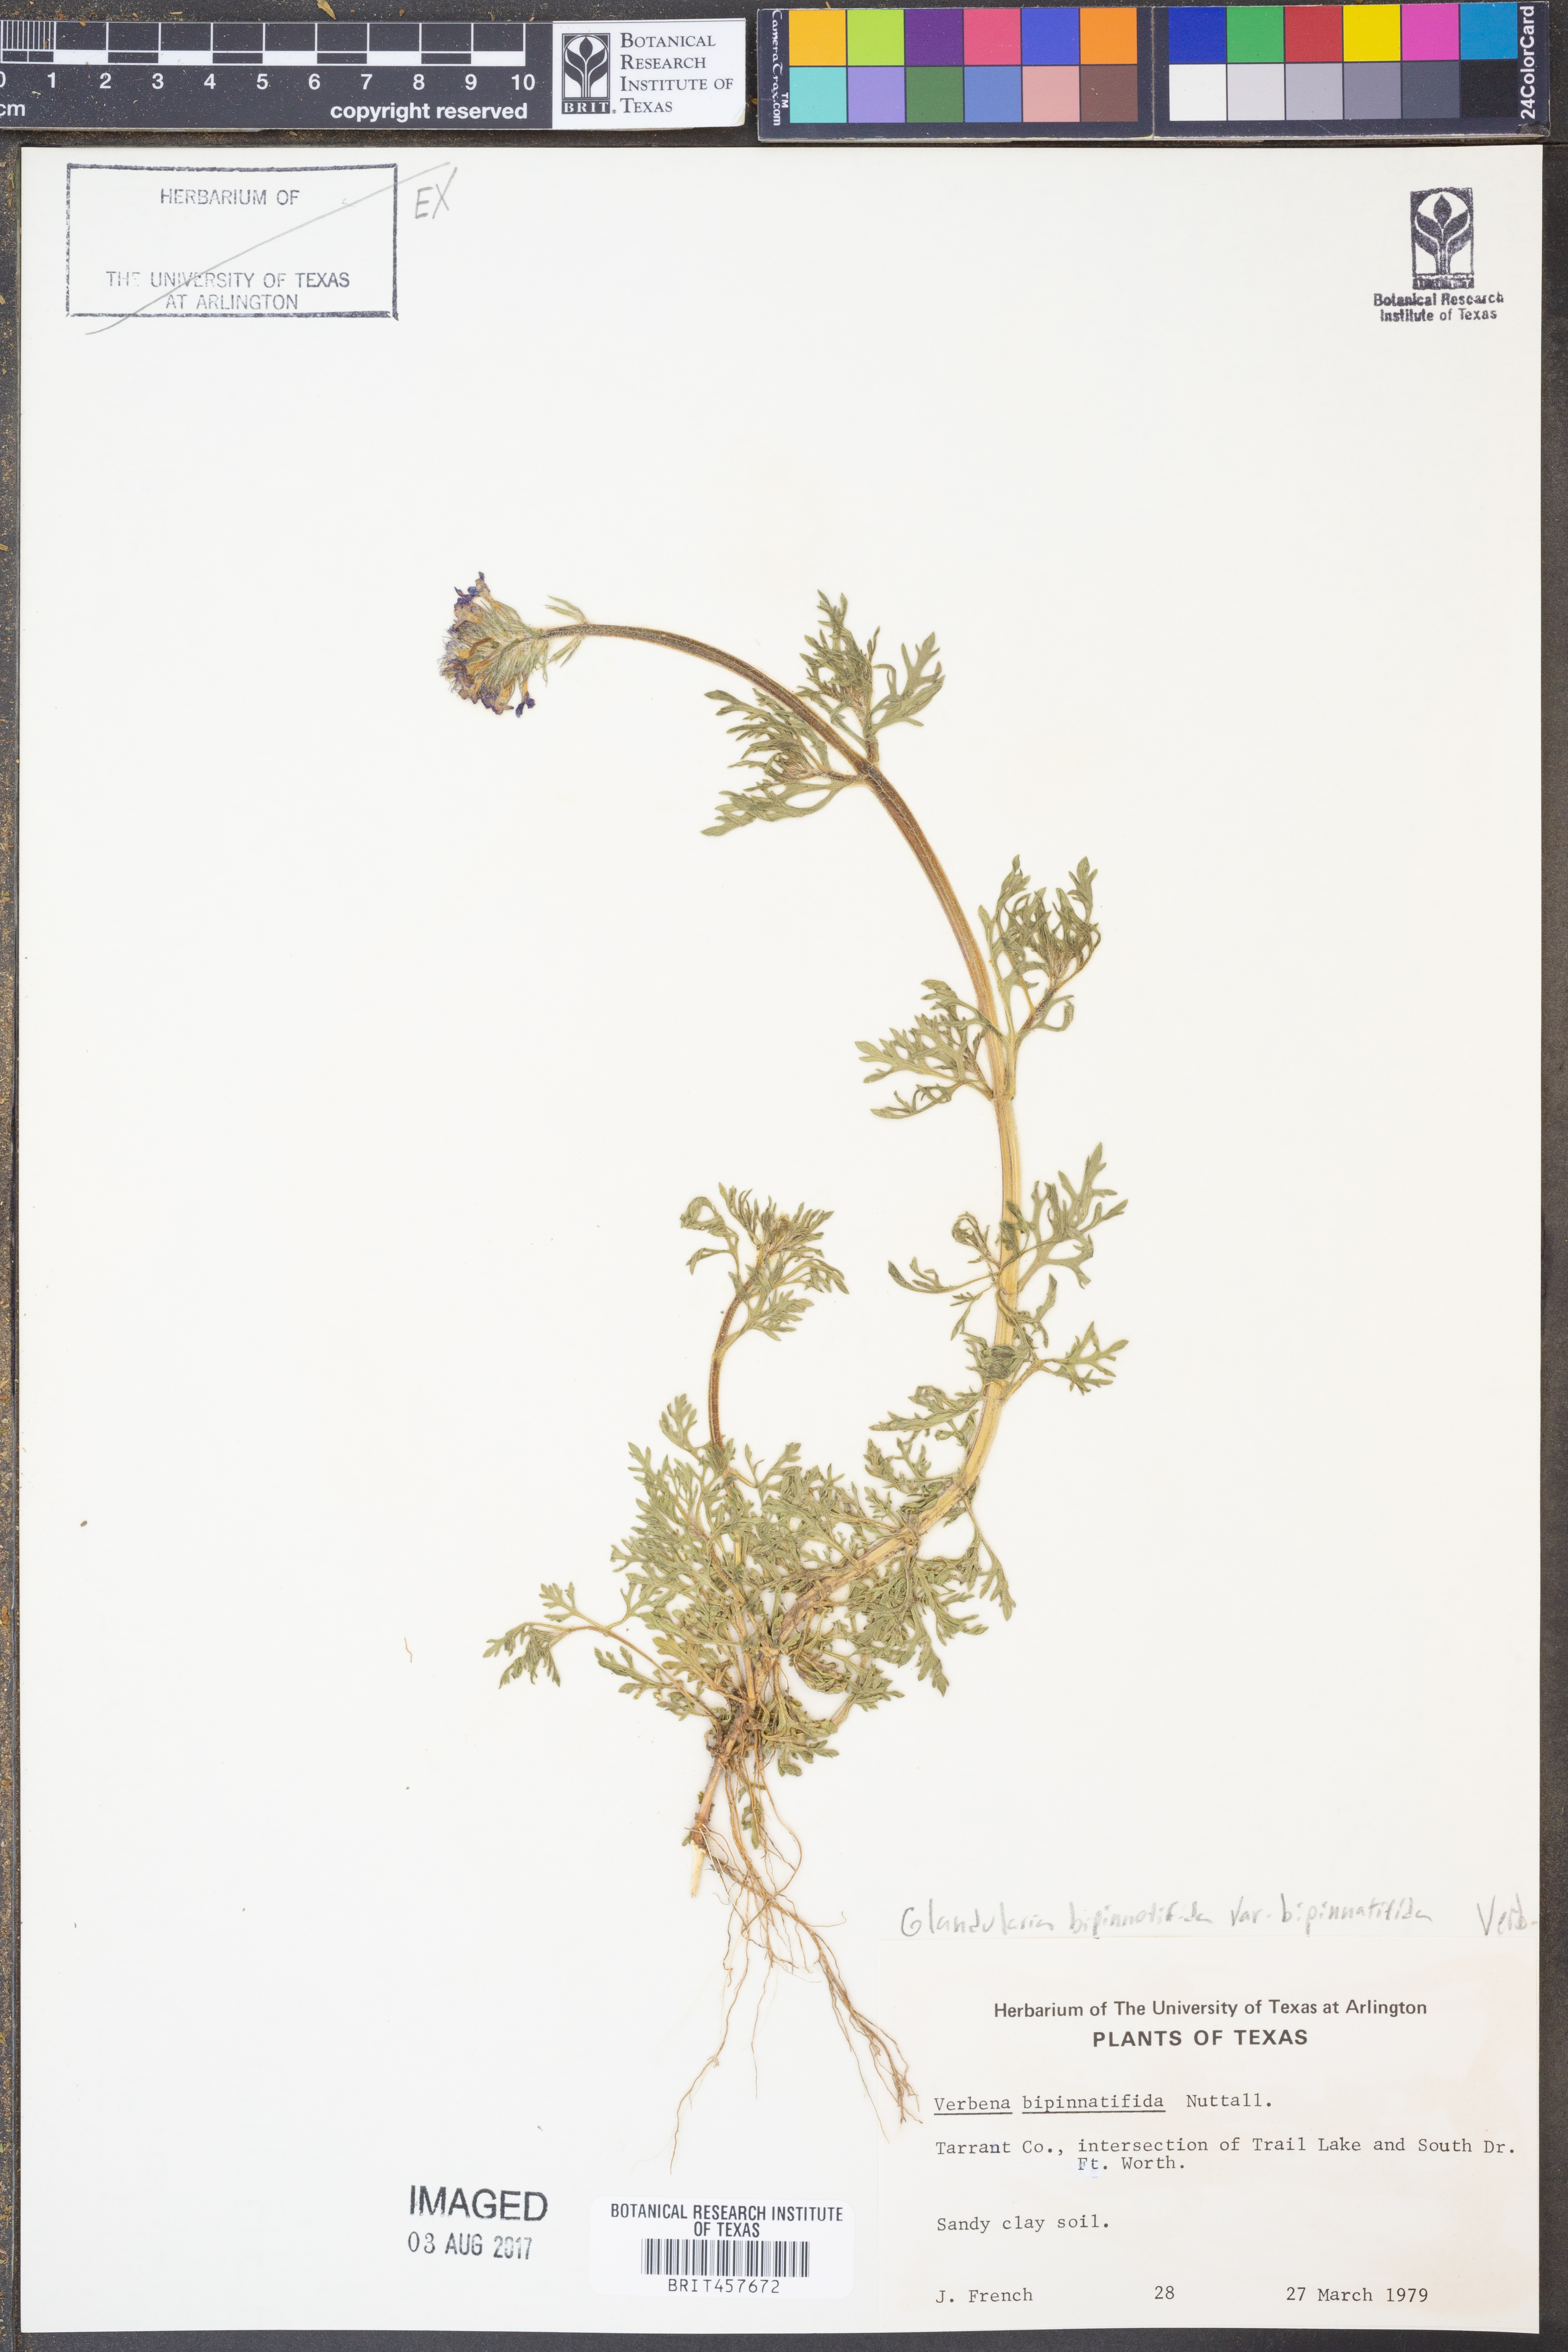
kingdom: Plantae
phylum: Tracheophyta
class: Magnoliopsida
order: Lamiales
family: Verbenaceae
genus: Verbena
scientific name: Verbena bipinnatifida
